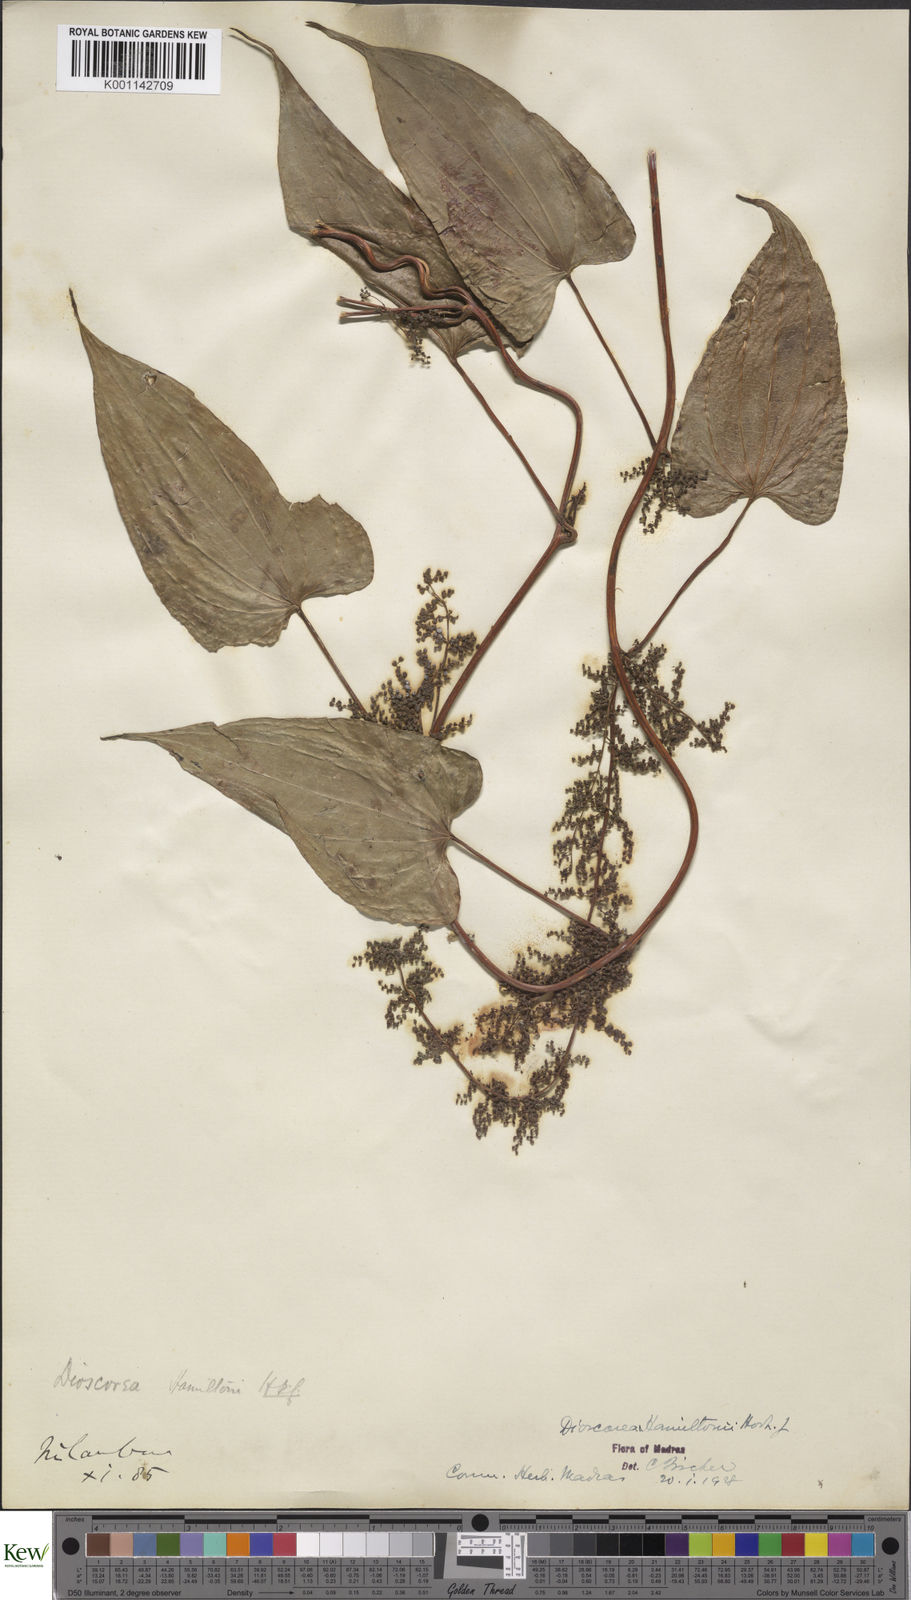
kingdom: Plantae
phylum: Tracheophyta
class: Liliopsida
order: Dioscoreales
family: Dioscoreaceae
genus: Dioscorea
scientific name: Dioscorea hamiltonii
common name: Mountain yam
